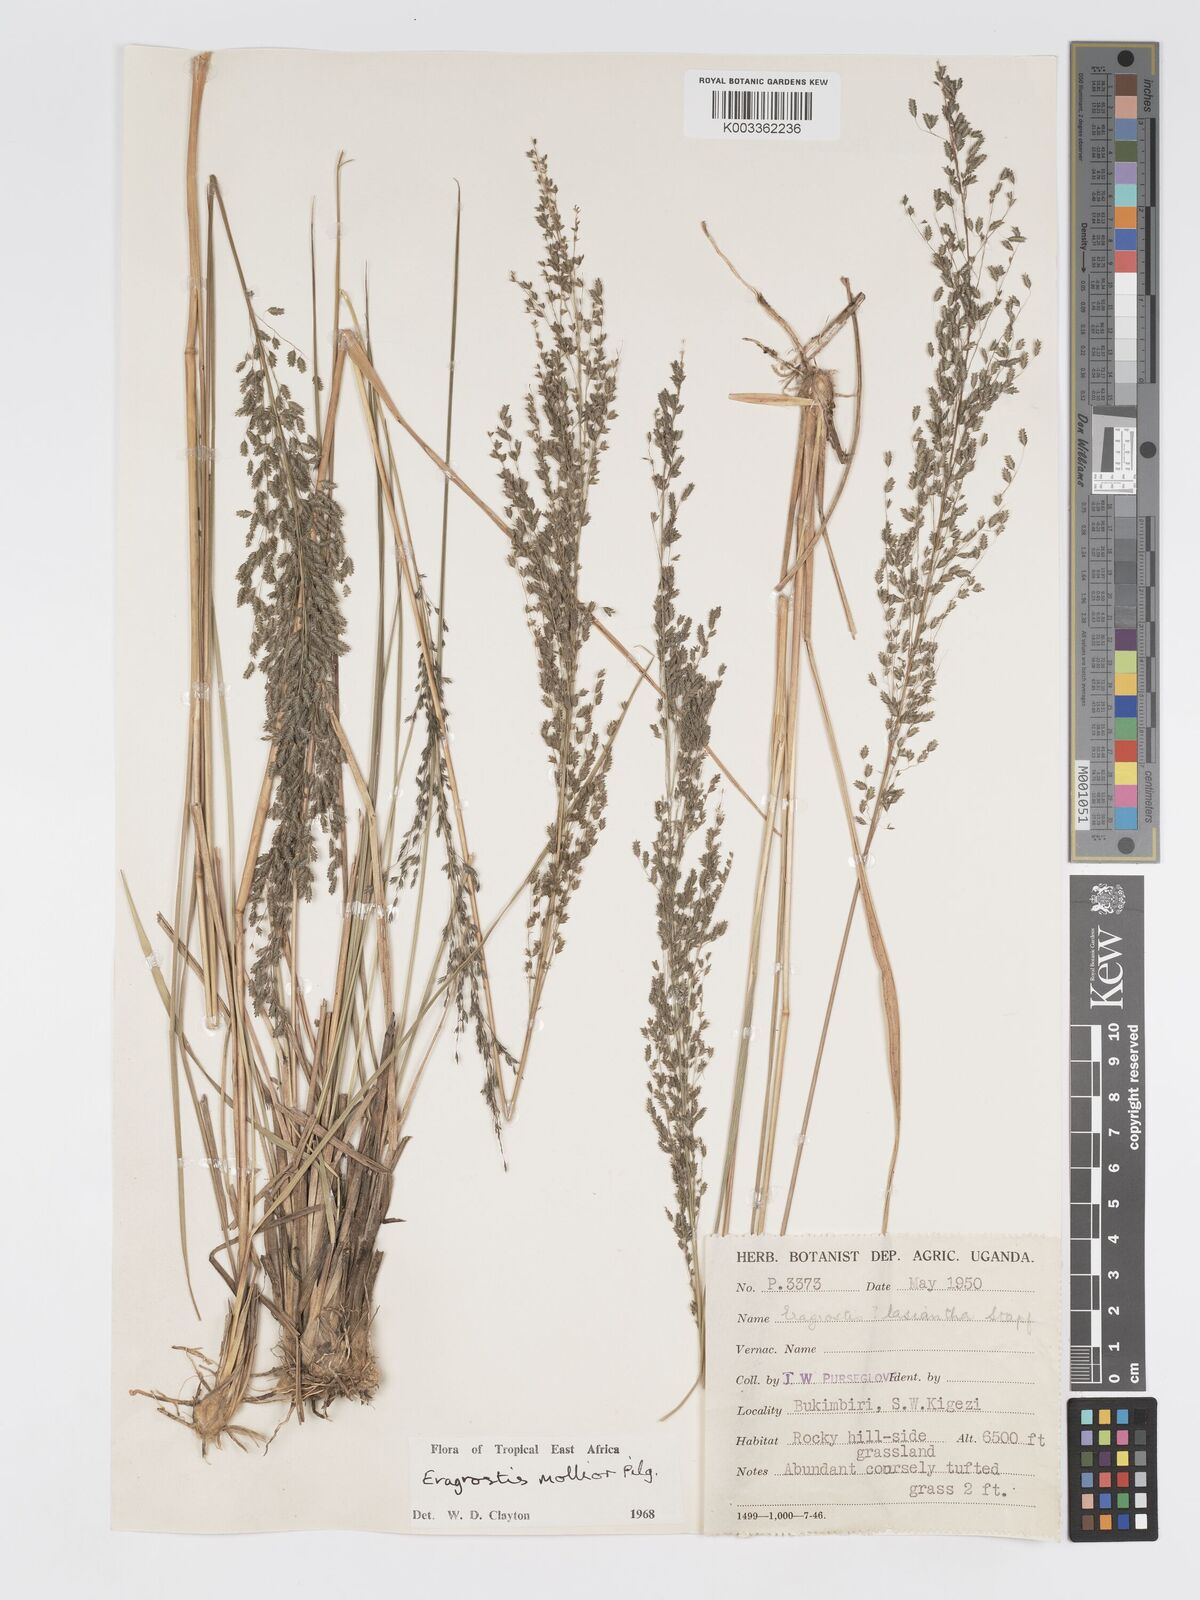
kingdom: Plantae
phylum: Tracheophyta
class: Liliopsida
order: Poales
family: Poaceae
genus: Eragrostis
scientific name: Eragrostis mollior
